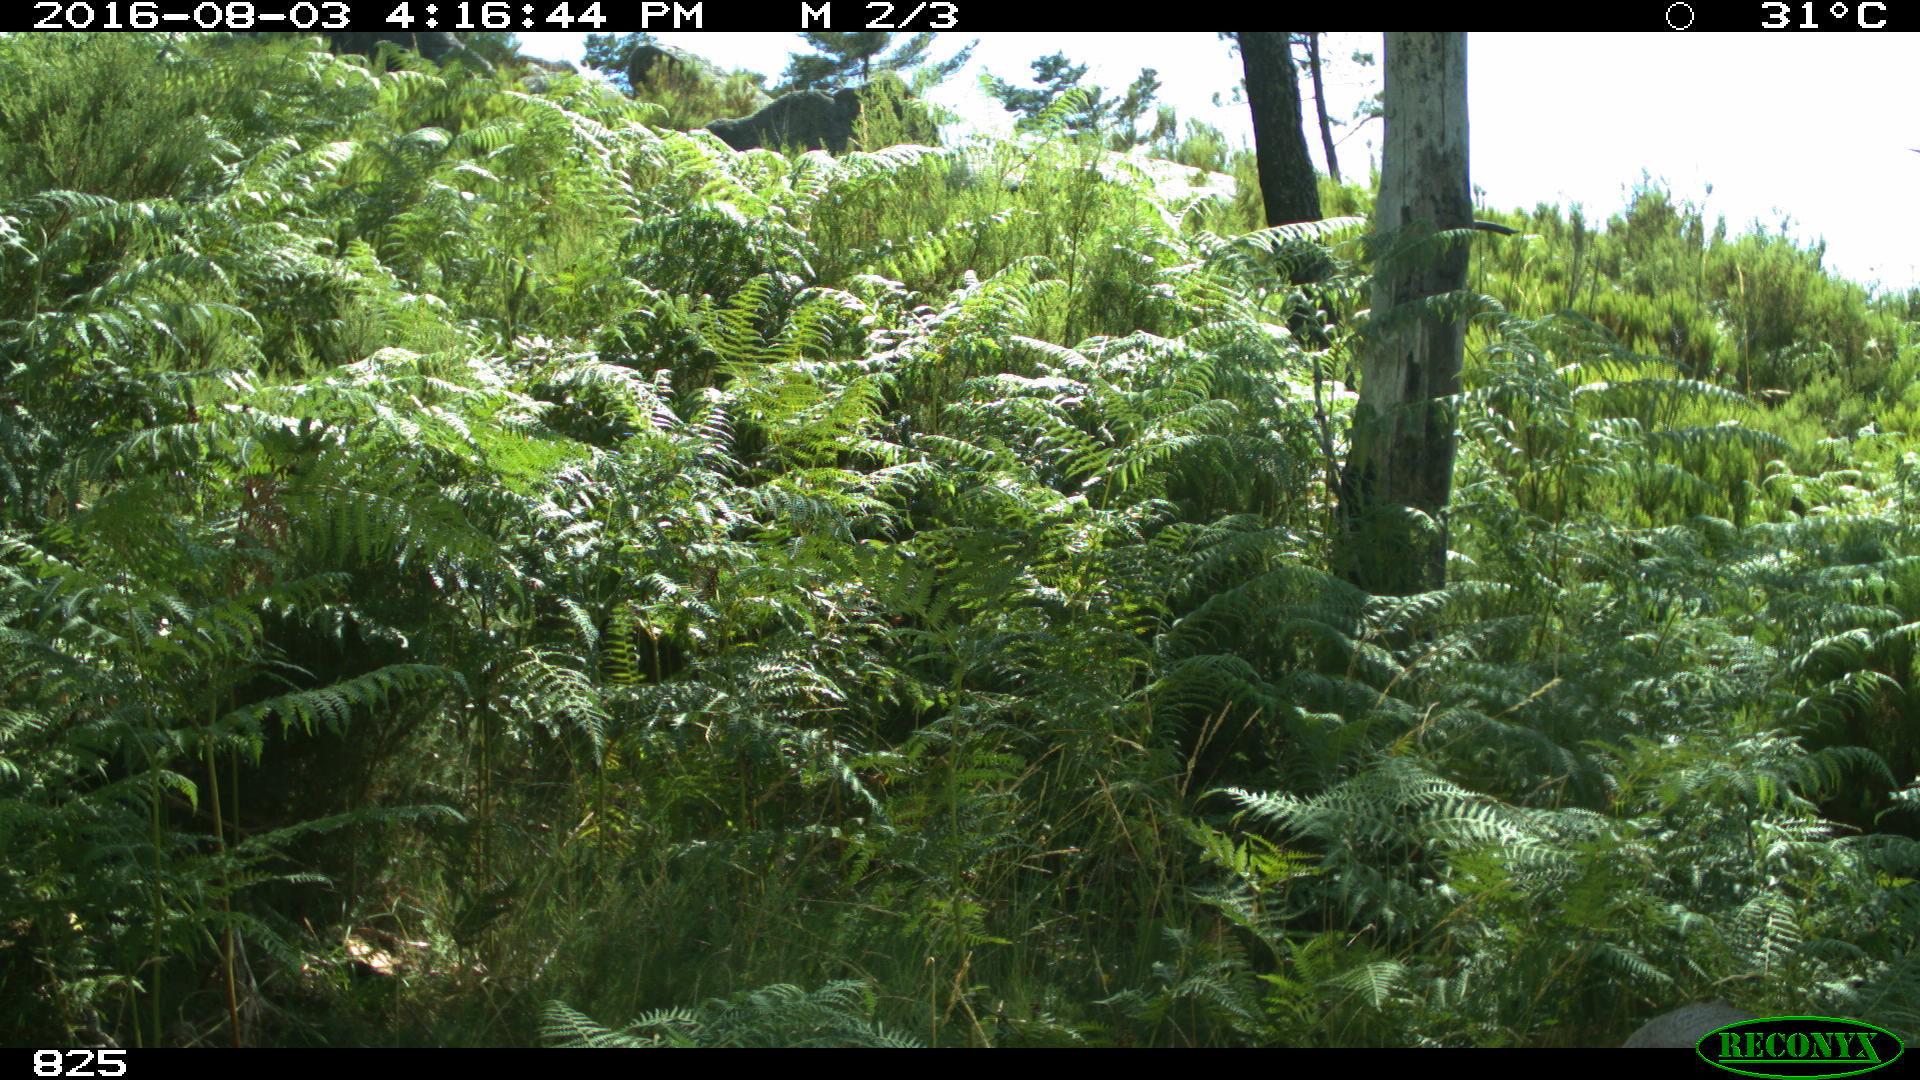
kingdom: Animalia
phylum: Chordata
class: Mammalia
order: Artiodactyla
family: Cervidae
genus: Capreolus
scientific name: Capreolus capreolus
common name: Western roe deer
